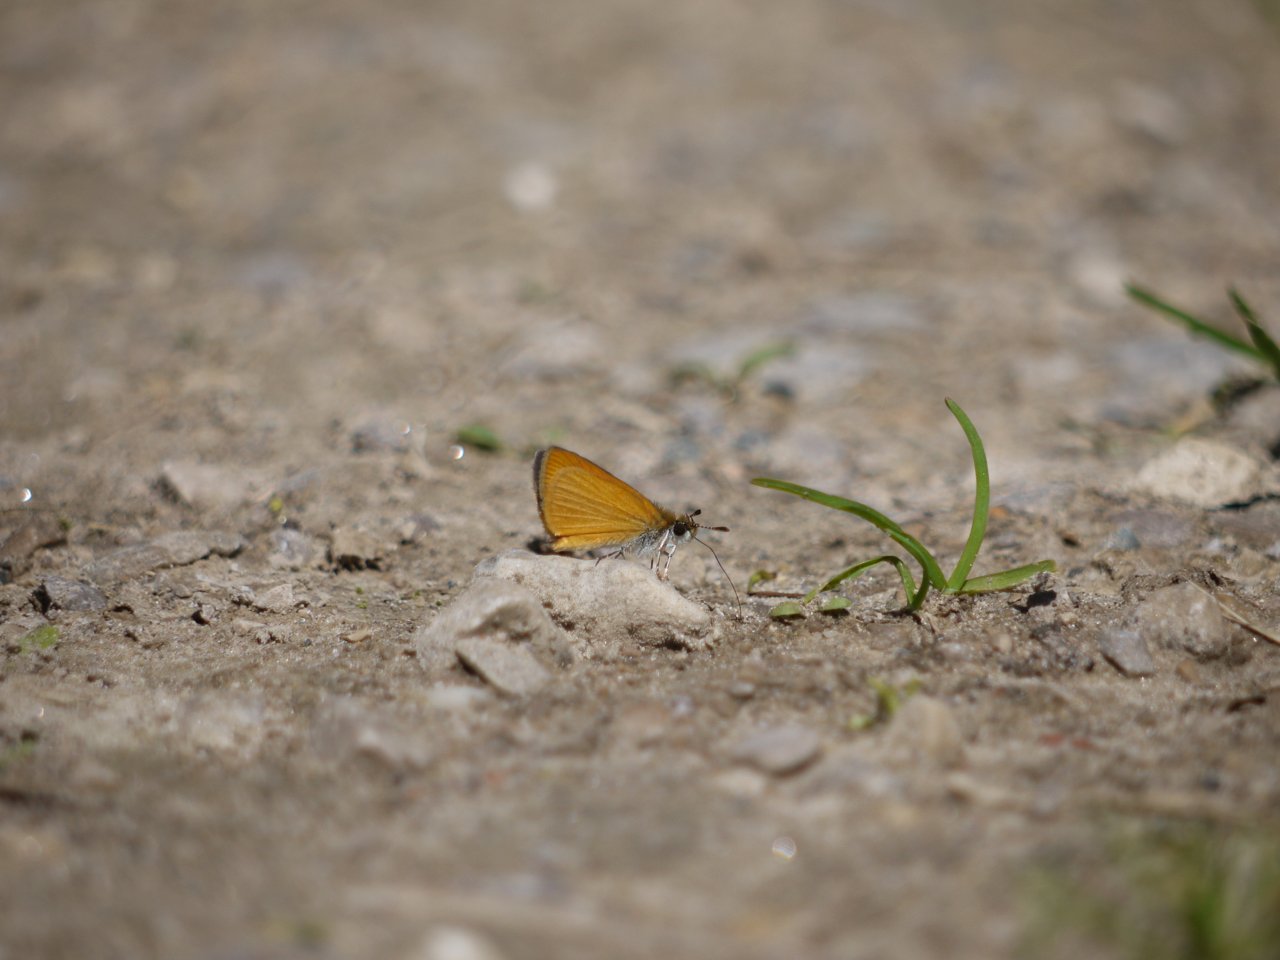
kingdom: Animalia
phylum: Arthropoda
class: Insecta
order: Lepidoptera
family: Hesperiidae
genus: Ancyloxypha
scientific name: Ancyloxypha numitor
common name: Least Skipper
